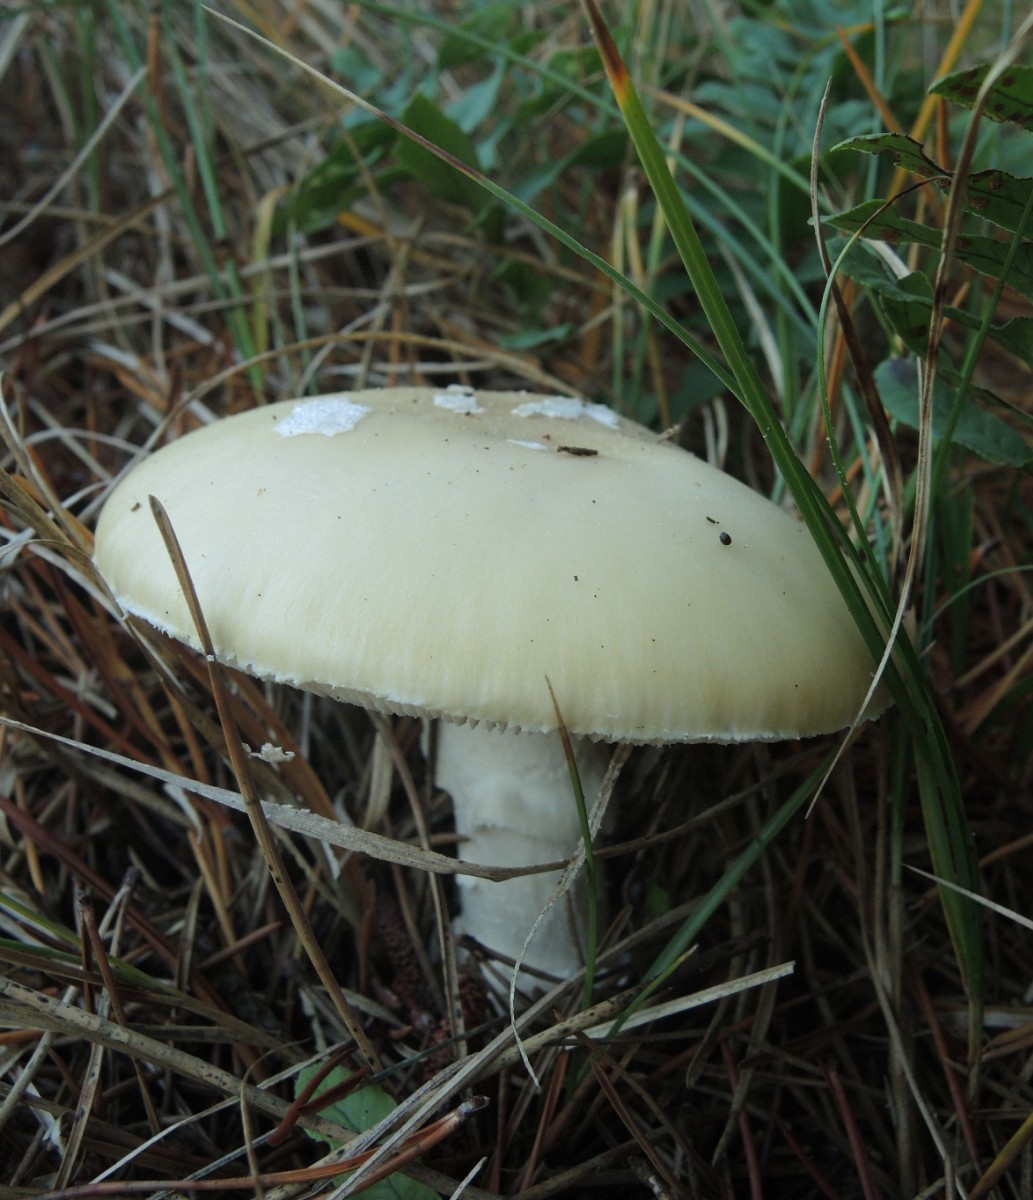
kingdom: Fungi
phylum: Basidiomycota
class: Agaricomycetes
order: Agaricales
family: Amanitaceae
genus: Amanita
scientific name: Amanita gemmata
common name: okkergul fluesvamp
